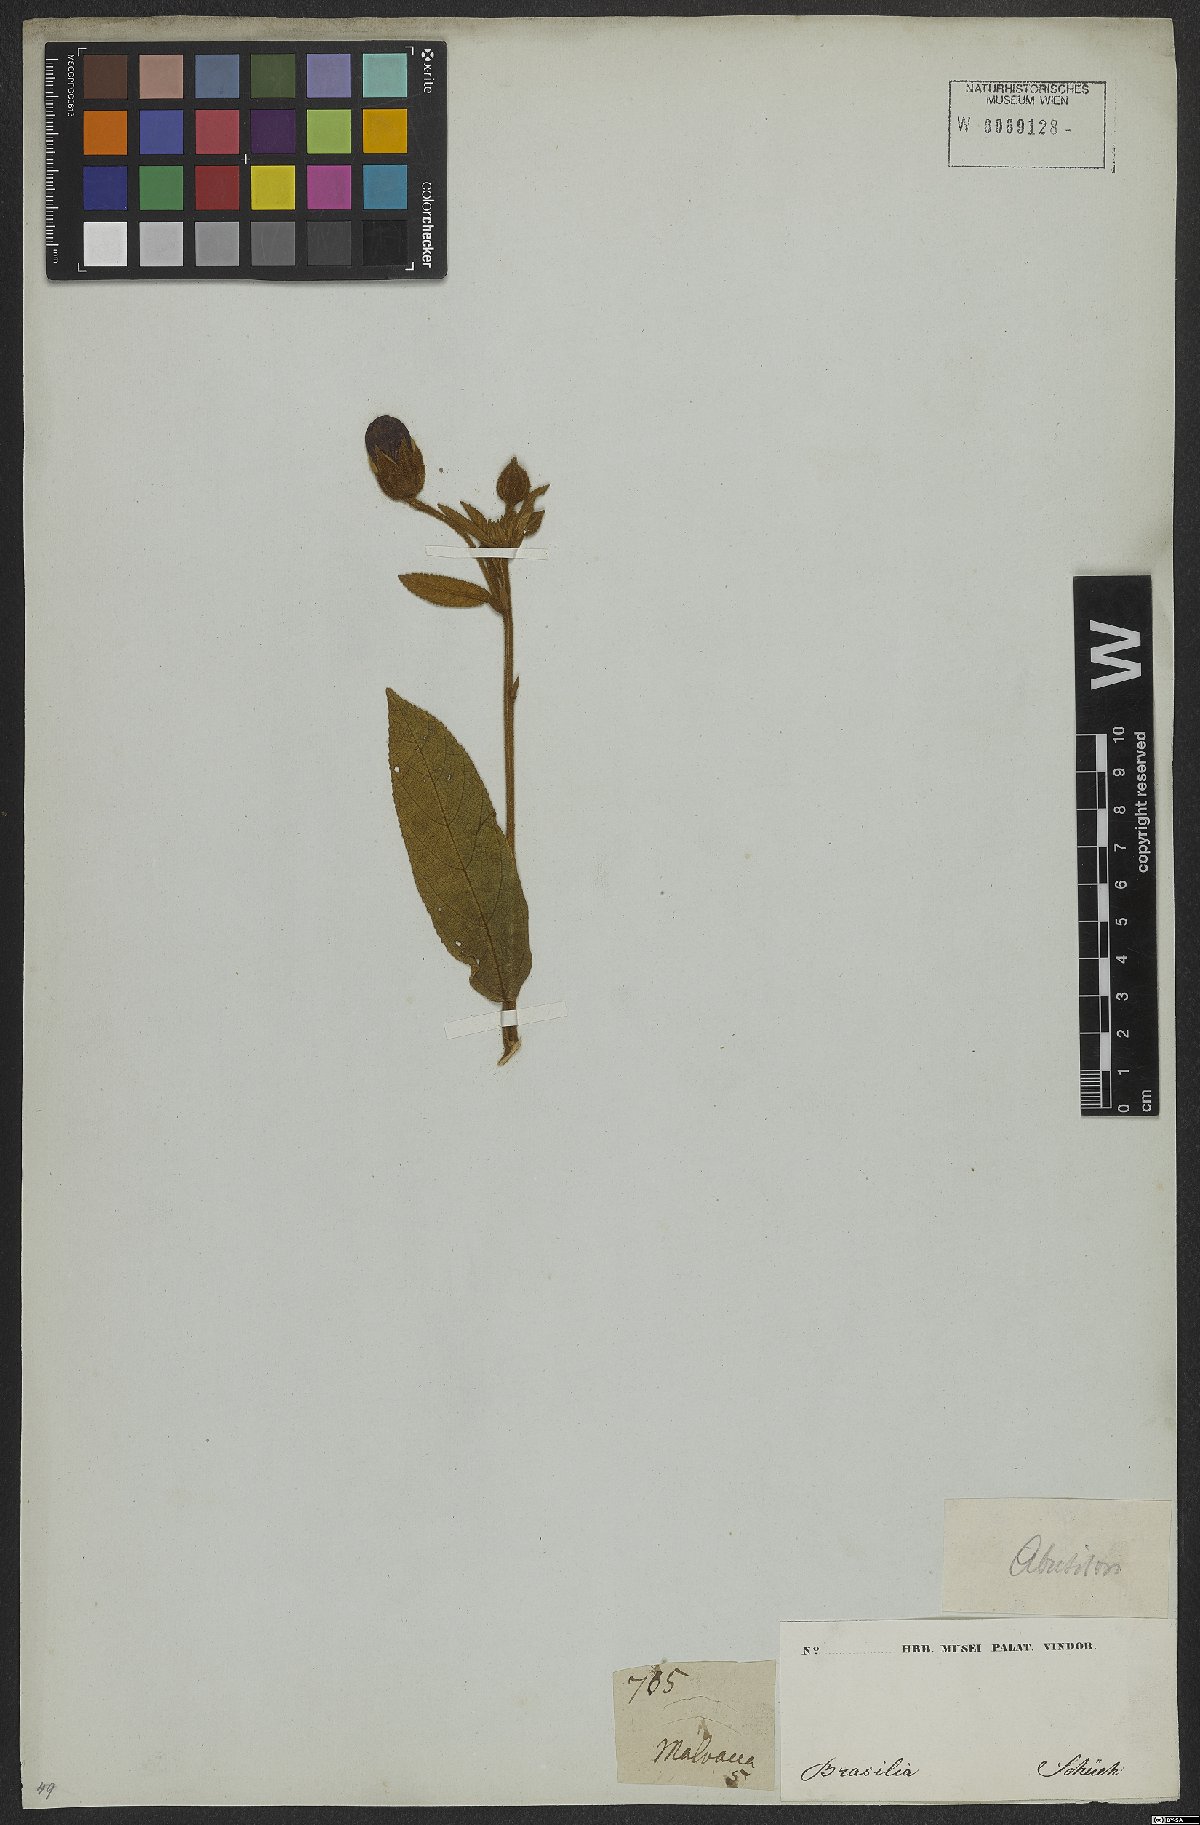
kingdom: Plantae
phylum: Tracheophyta
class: Magnoliopsida
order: Malvales
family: Malvaceae
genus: Callianthe
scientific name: Callianthe rufinerva
